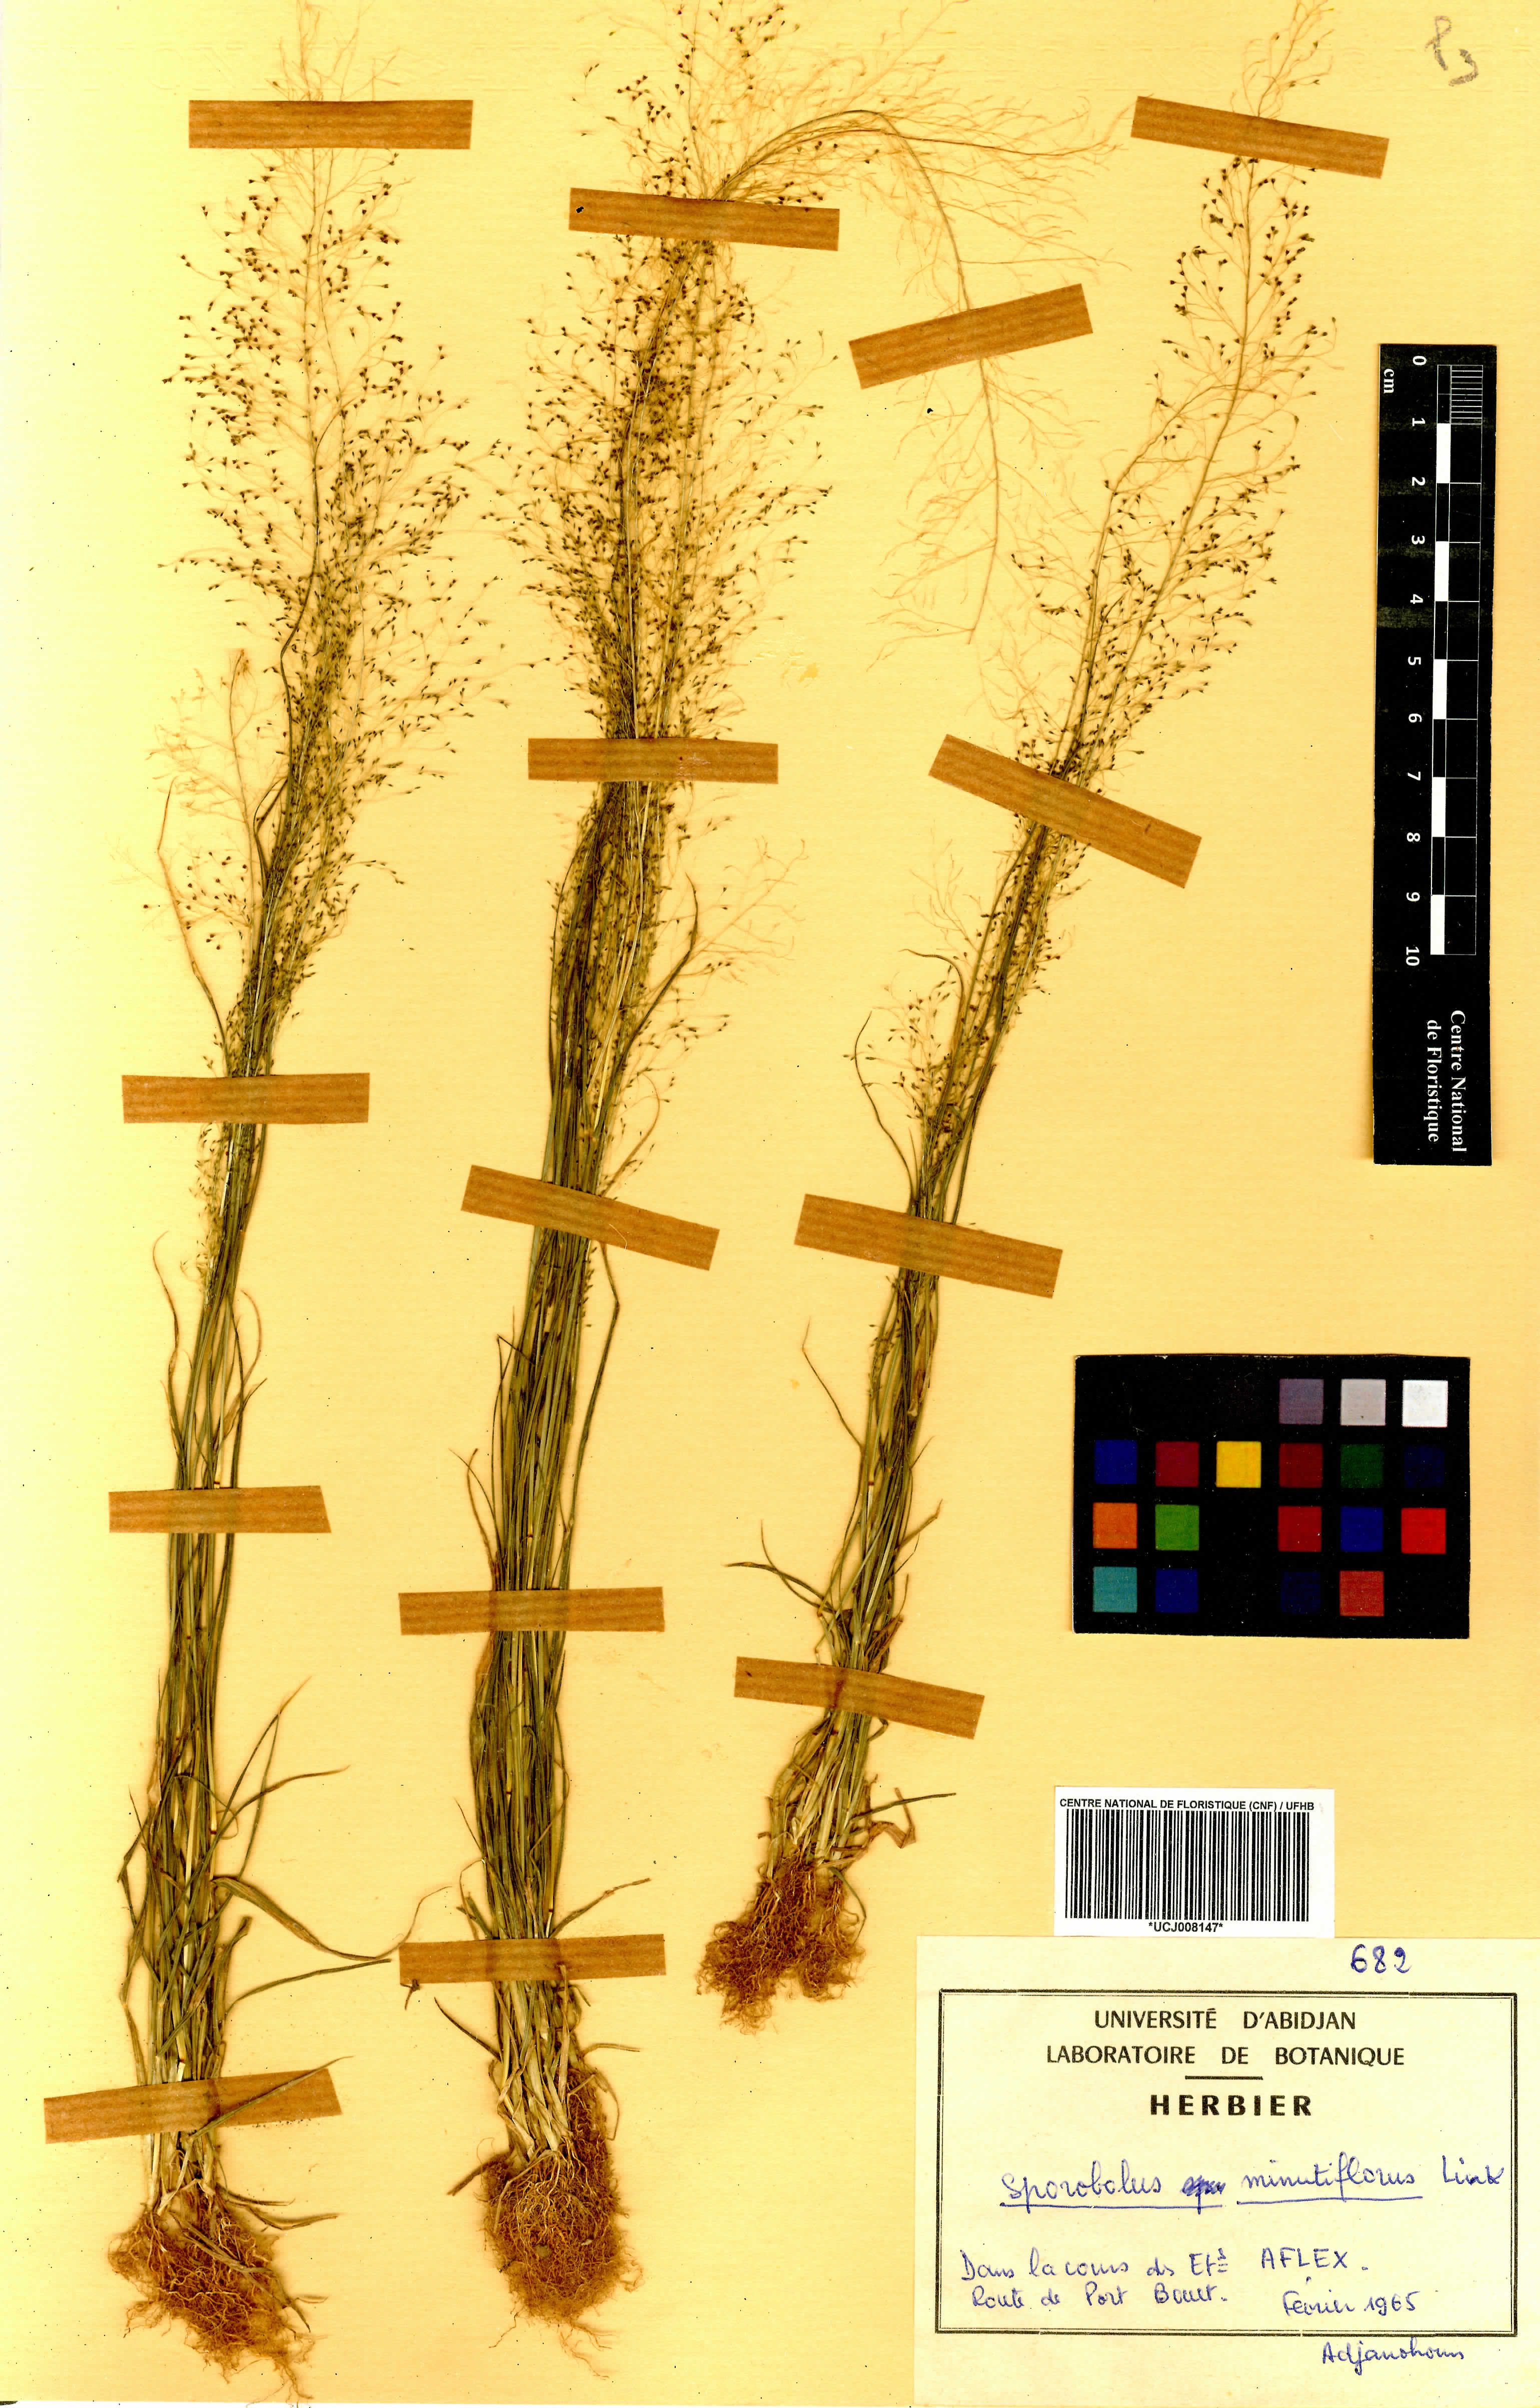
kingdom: Plantae
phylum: Tracheophyta
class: Liliopsida
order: Poales
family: Poaceae
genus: Sporobolus
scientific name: Sporobolus tenuissimus
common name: Tropical dropseed
